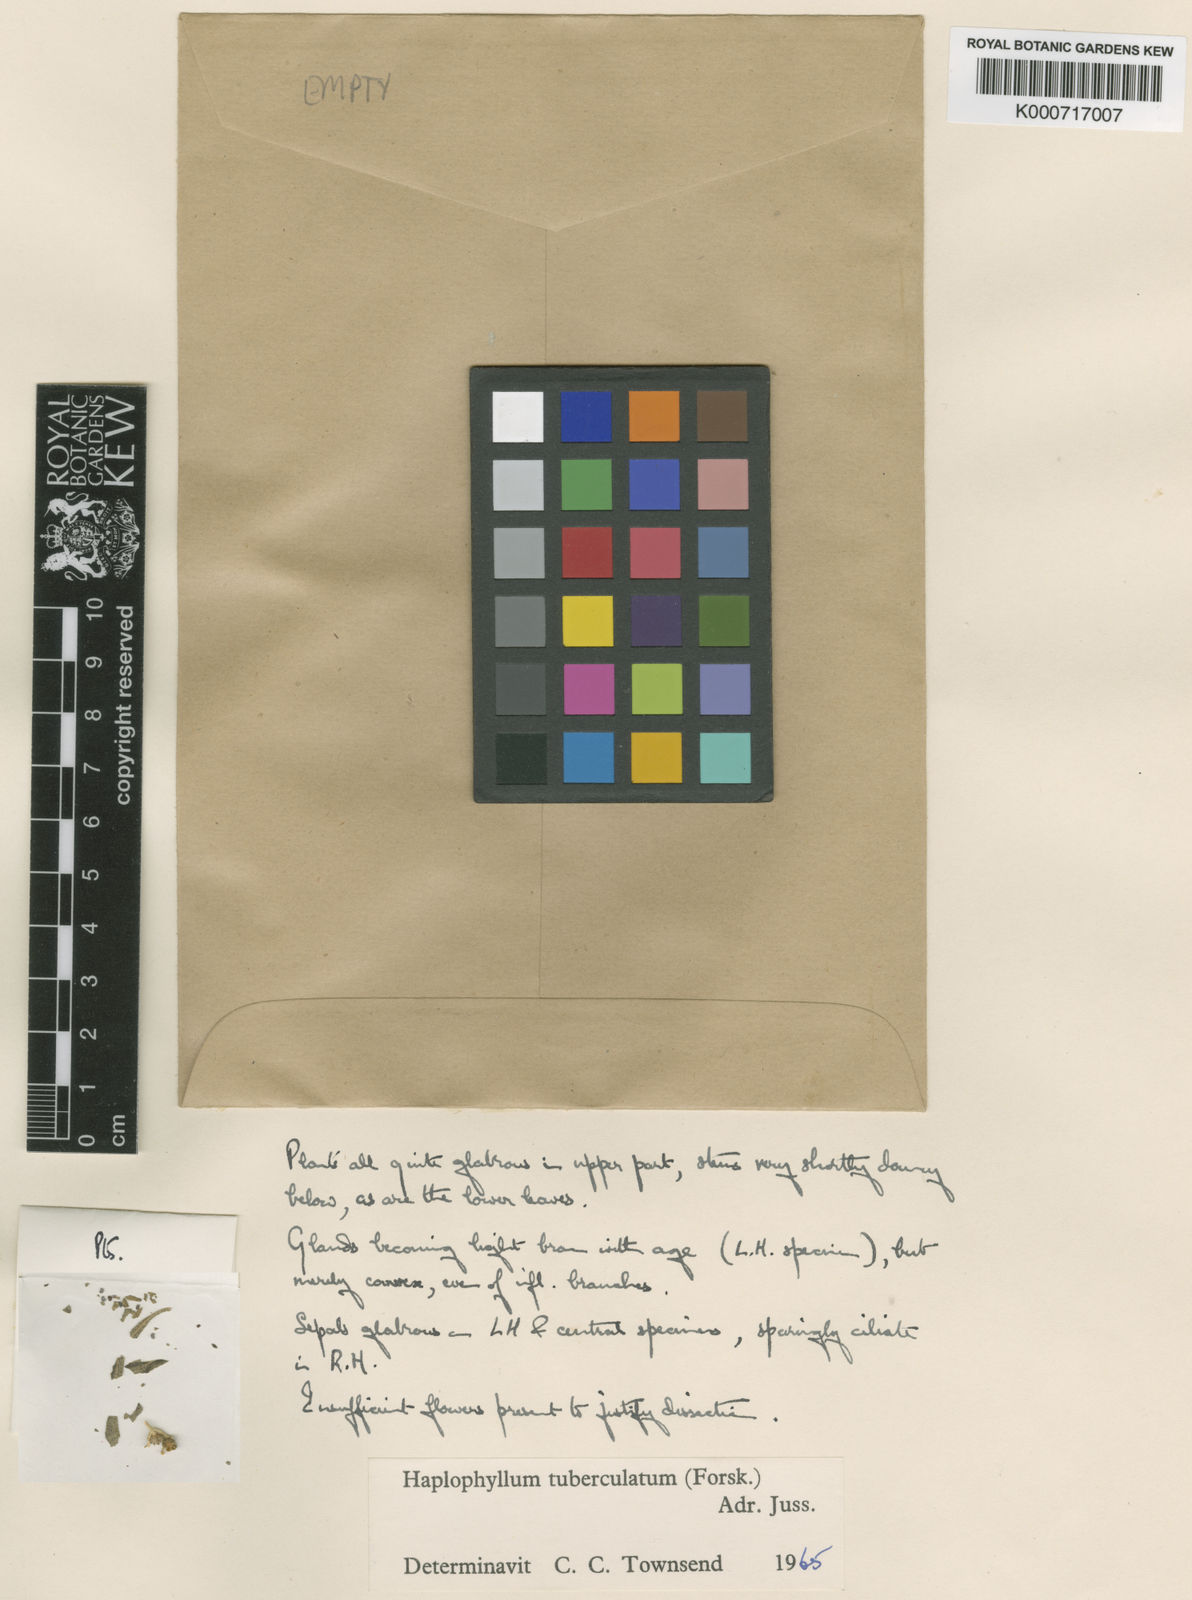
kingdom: Plantae
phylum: Tracheophyta
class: Magnoliopsida
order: Sapindales
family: Rutaceae
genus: Haplophyllum
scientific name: Haplophyllum tuberculatum
